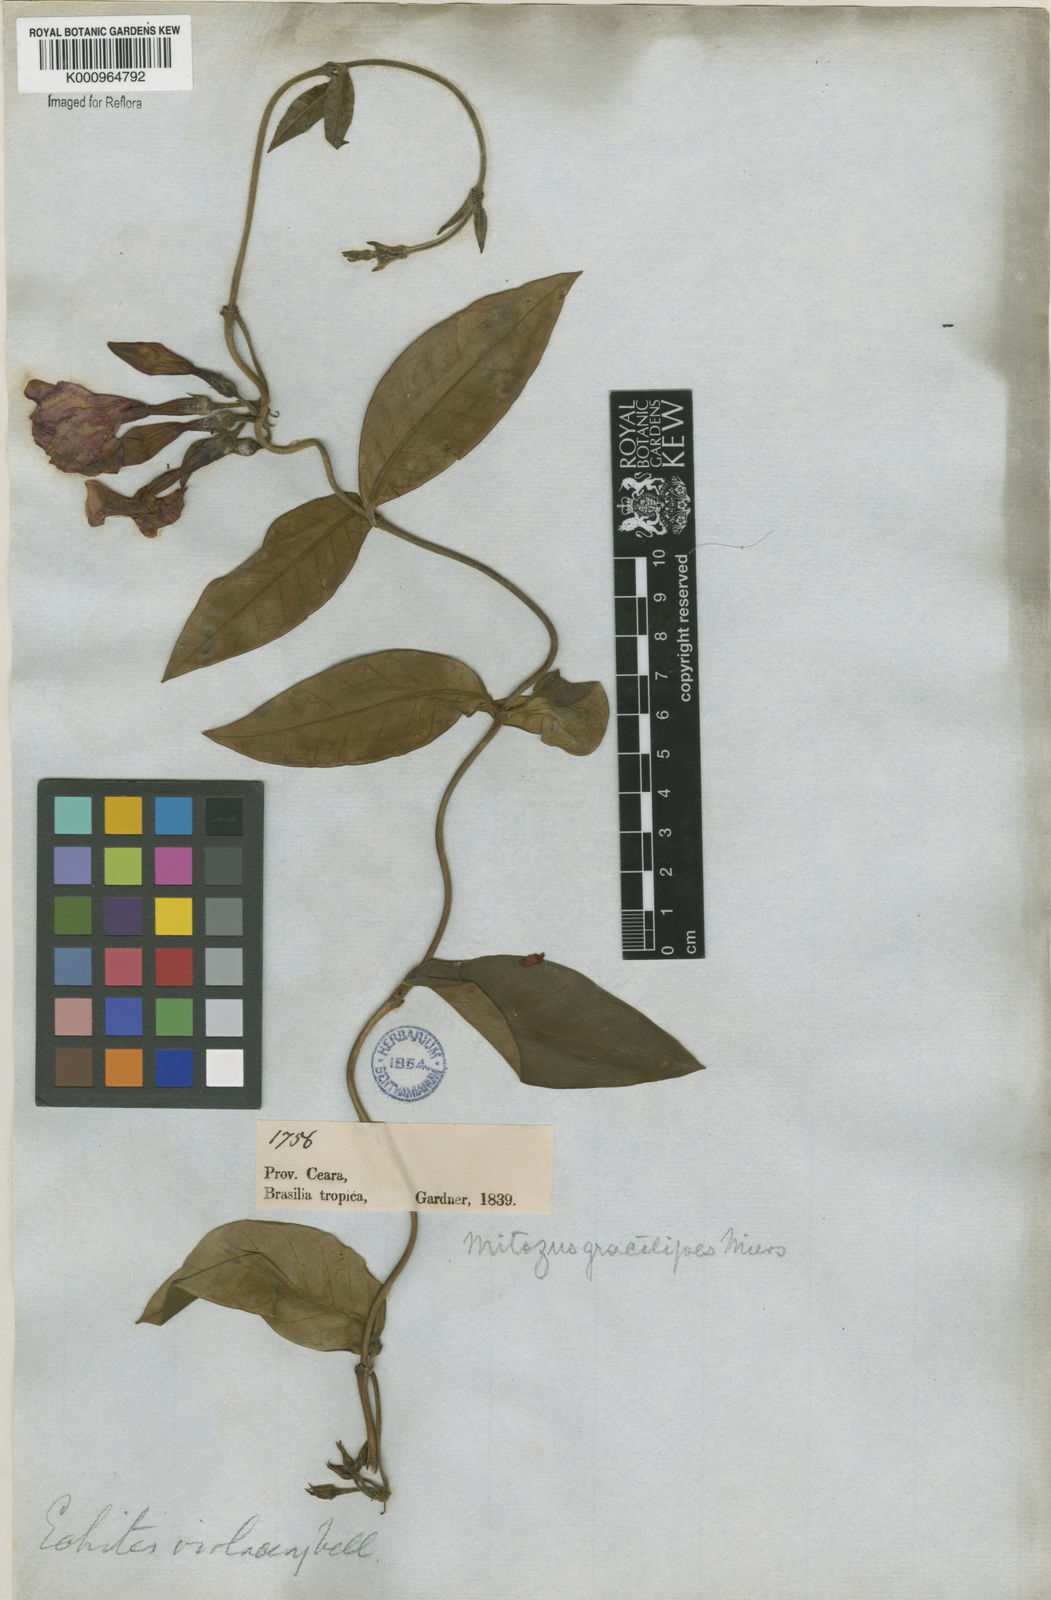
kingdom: Plantae
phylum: Tracheophyta
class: Magnoliopsida
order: Gentianales
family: Apocynaceae
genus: Temnadenia
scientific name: Temnadenia violacea
